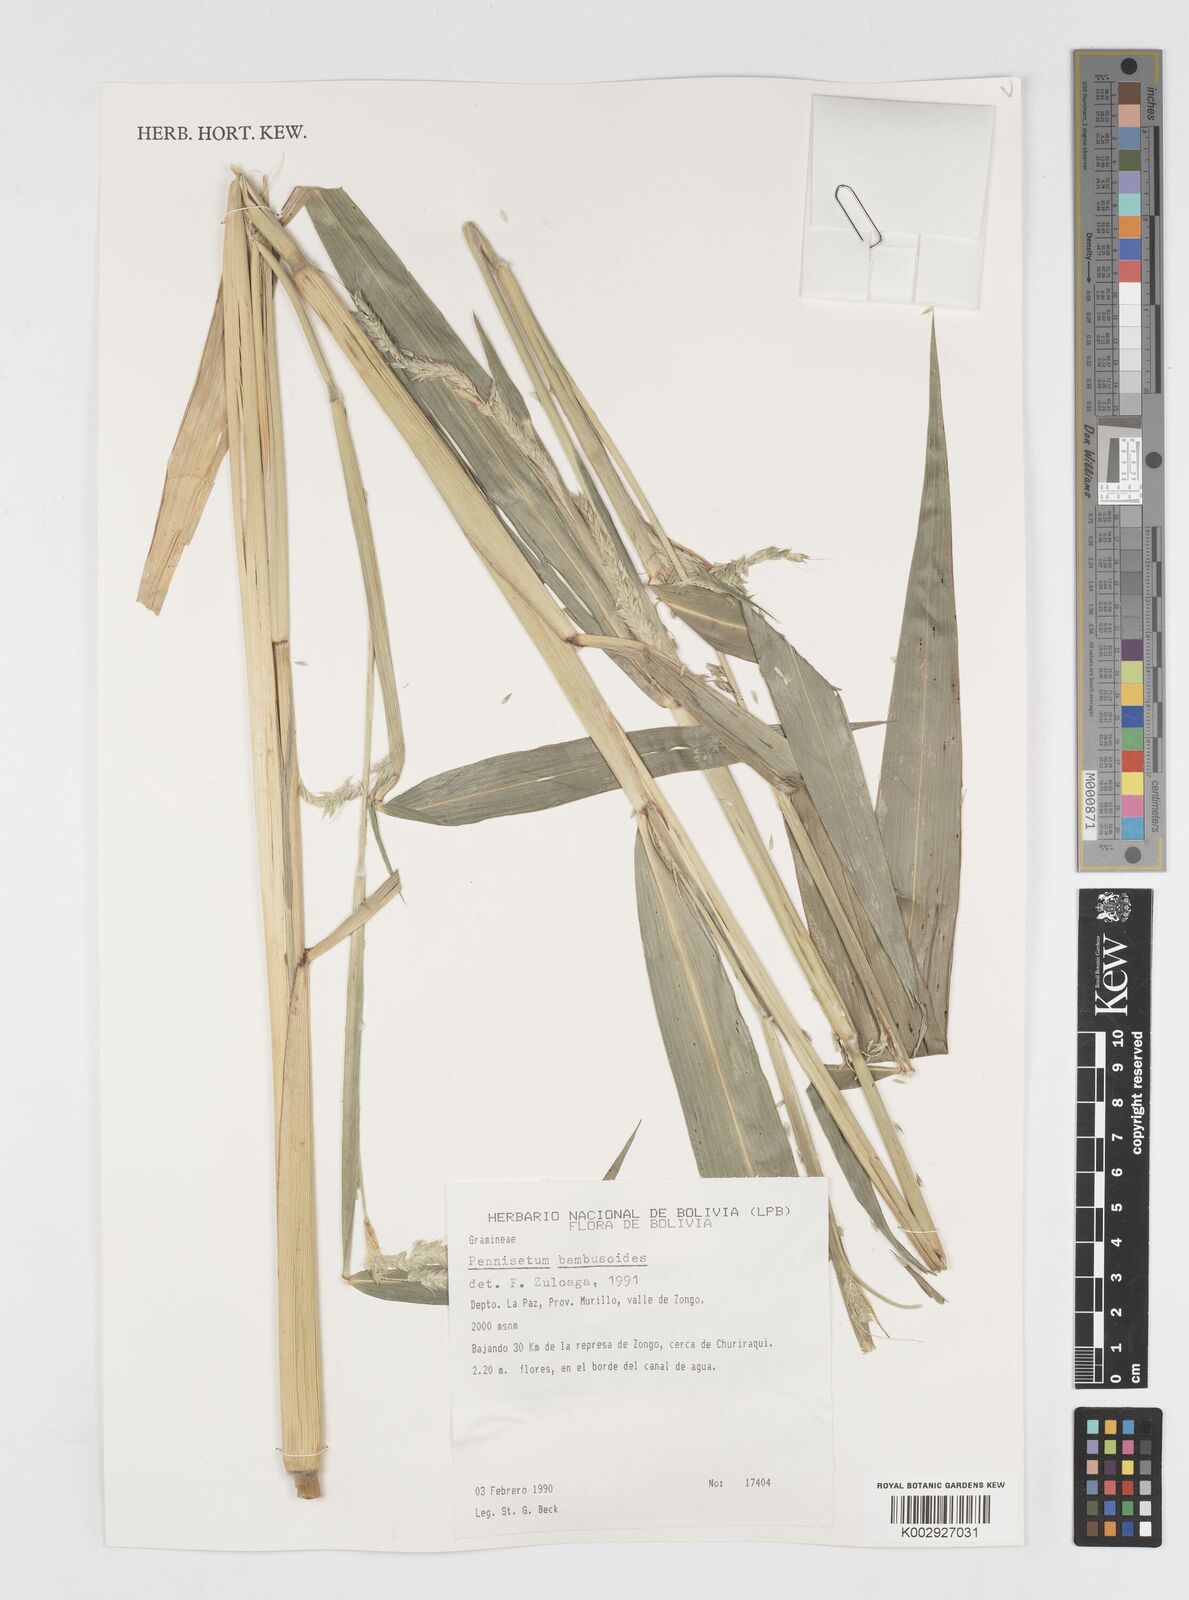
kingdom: Plantae
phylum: Tracheophyta
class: Liliopsida
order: Poales
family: Poaceae
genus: Cenchrus
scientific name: Cenchrus latifolius
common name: Sandbur
